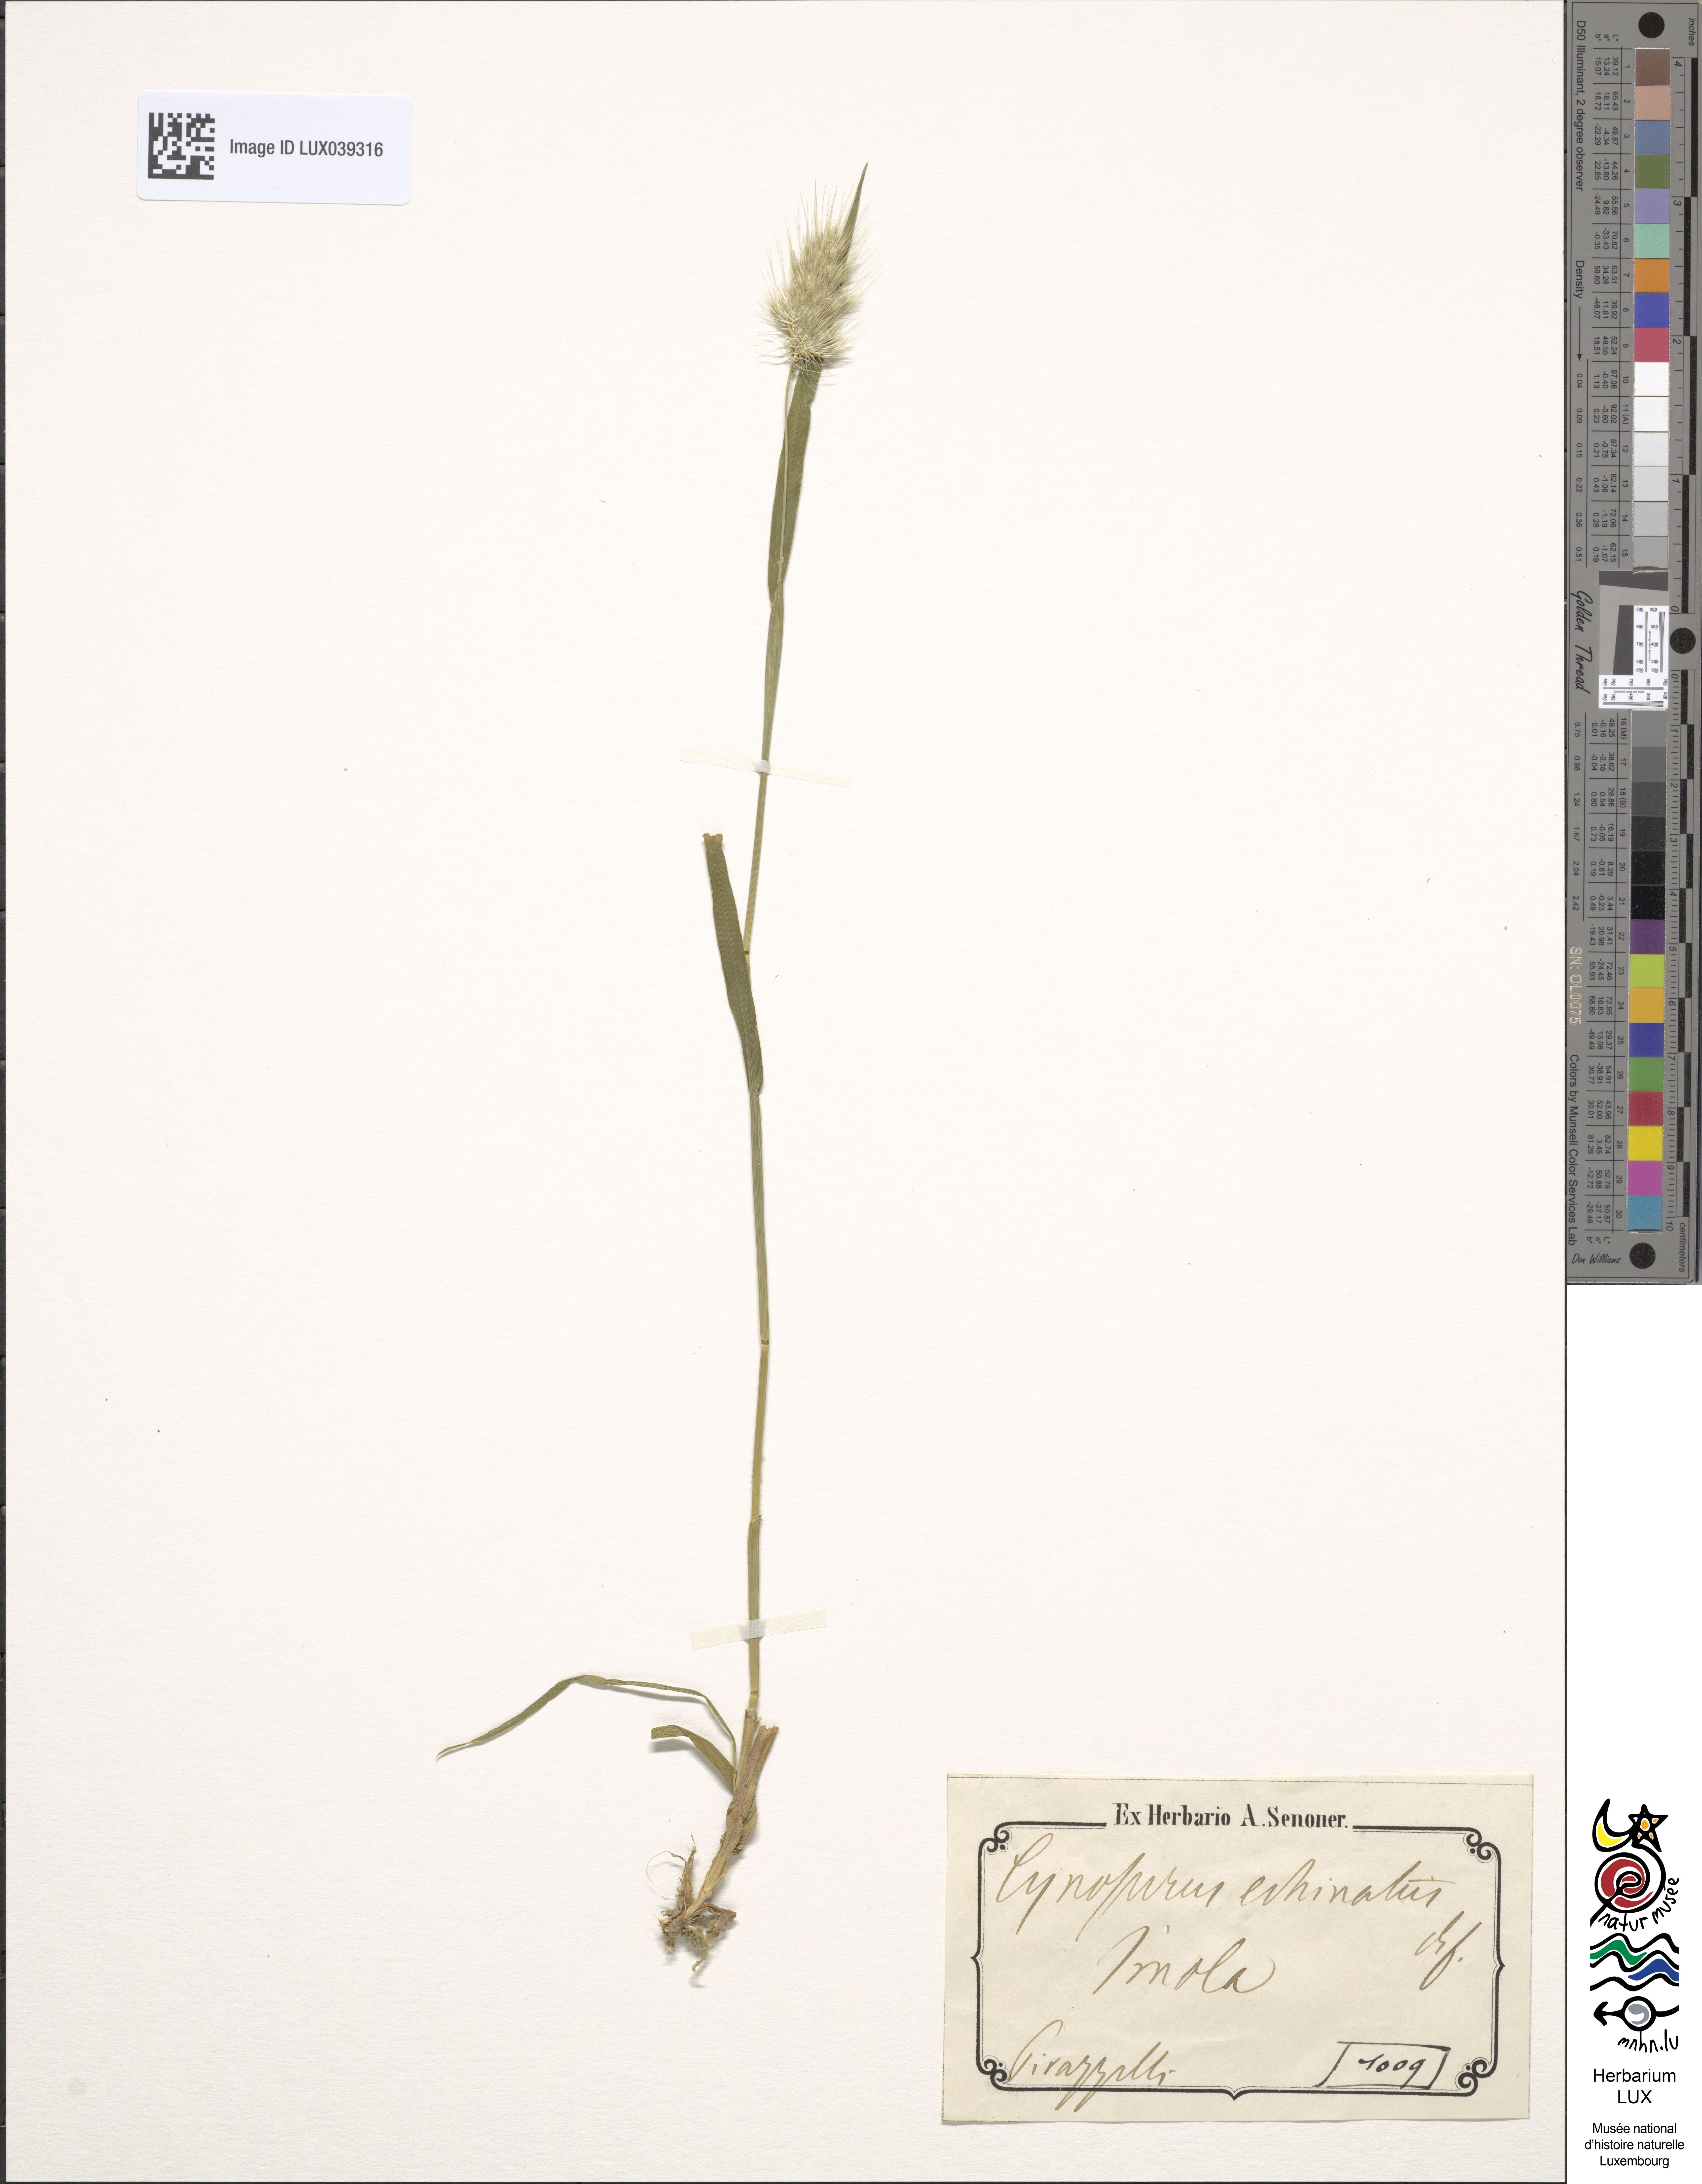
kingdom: Plantae
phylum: Tracheophyta
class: Liliopsida
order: Poales
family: Poaceae
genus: Cynosurus
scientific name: Cynosurus echinatus
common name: Rough dog's-tail
